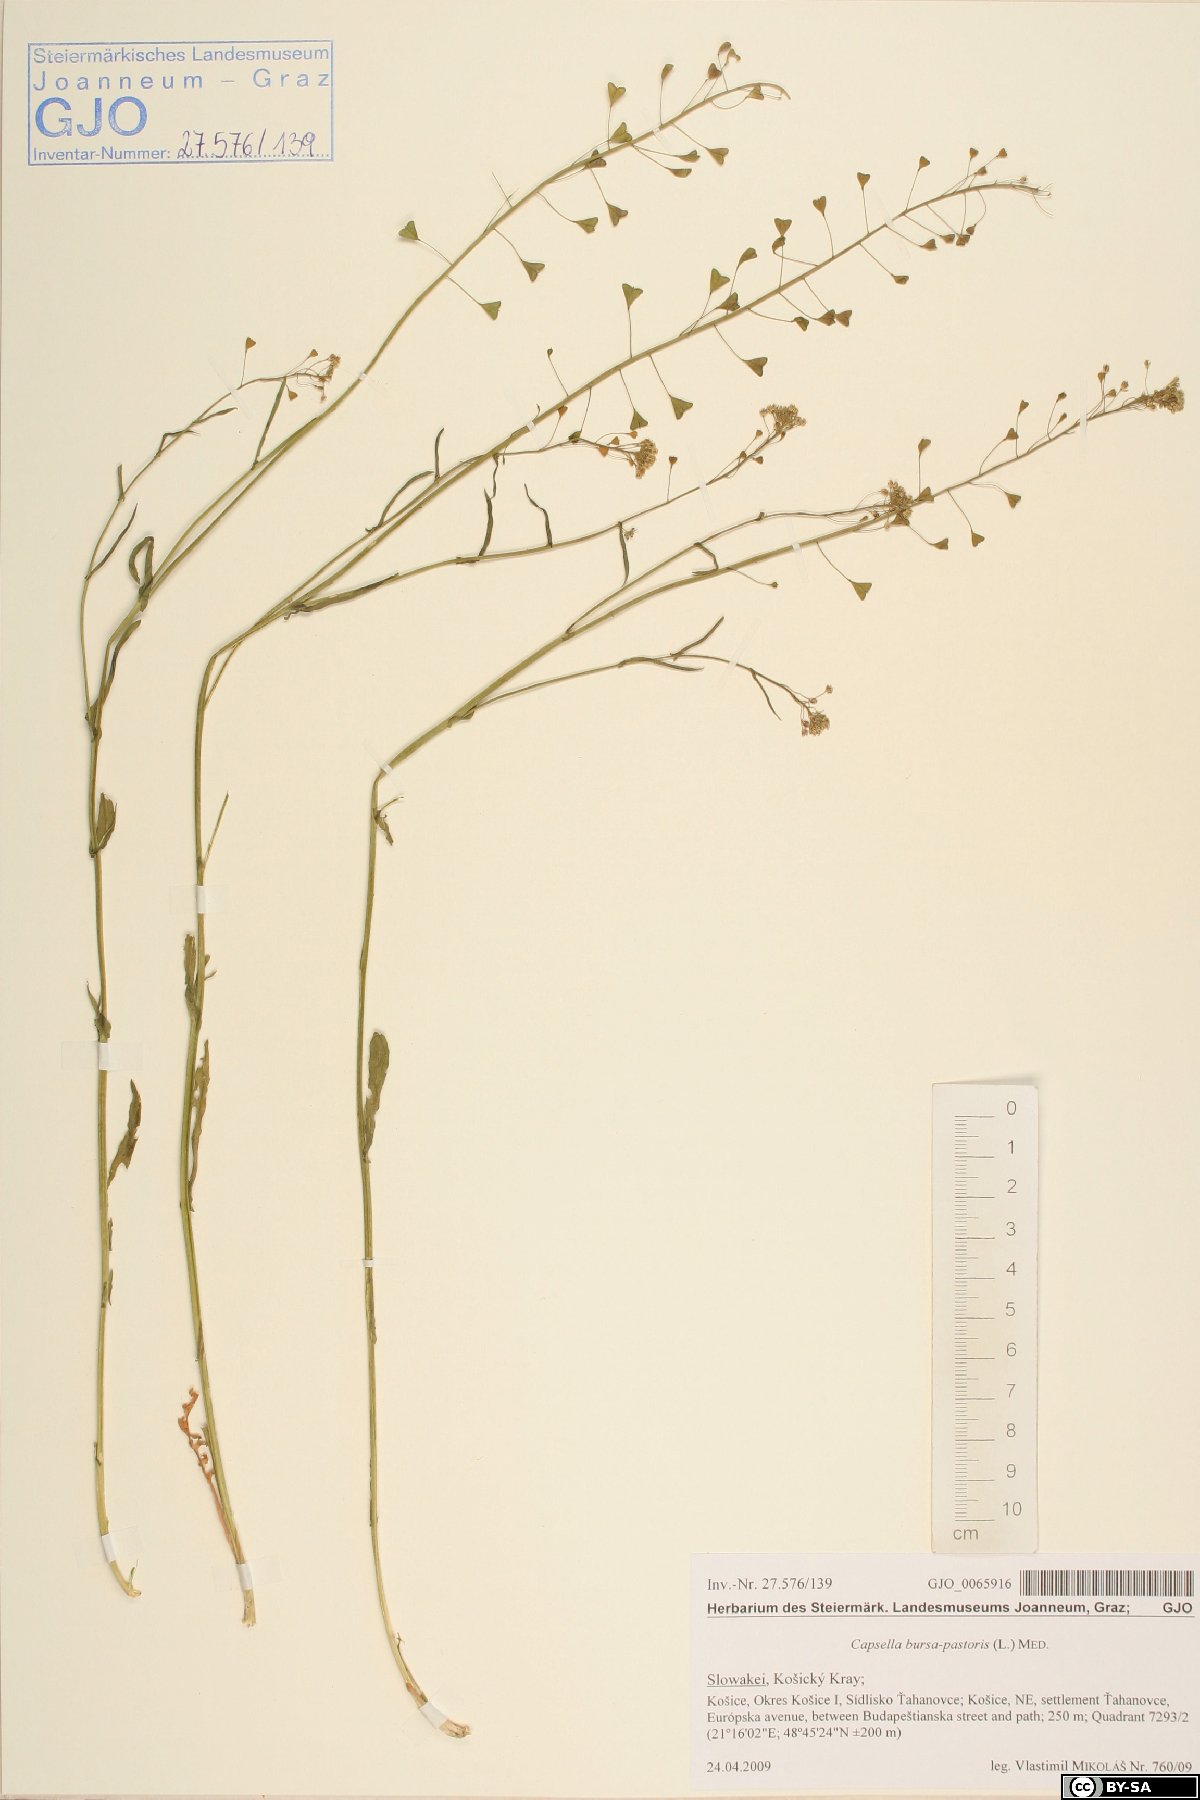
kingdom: Plantae
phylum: Tracheophyta
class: Magnoliopsida
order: Brassicales
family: Brassicaceae
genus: Capsella
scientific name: Capsella bursa-pastoris
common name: Shepherd's purse
